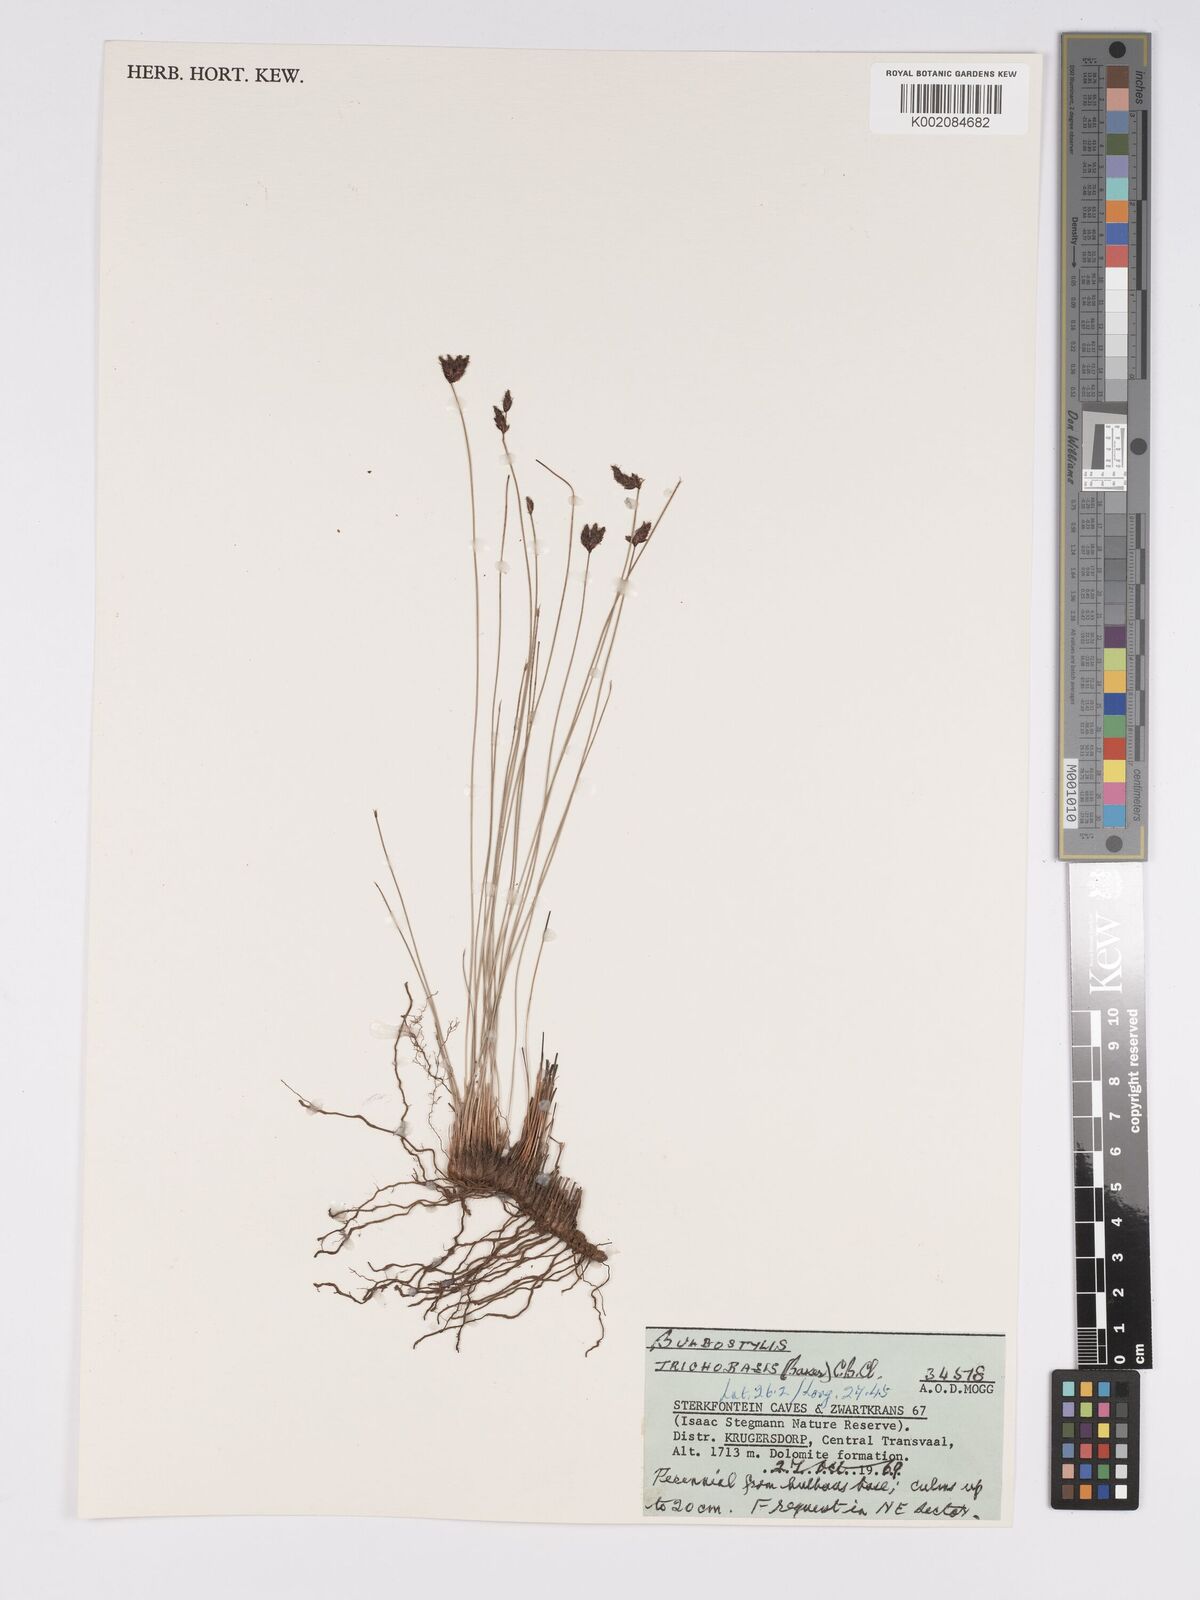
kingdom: Plantae
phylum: Tracheophyta
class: Liliopsida
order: Poales
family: Cyperaceae
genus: Bulbostylis
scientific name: Bulbostylis oritrephes
